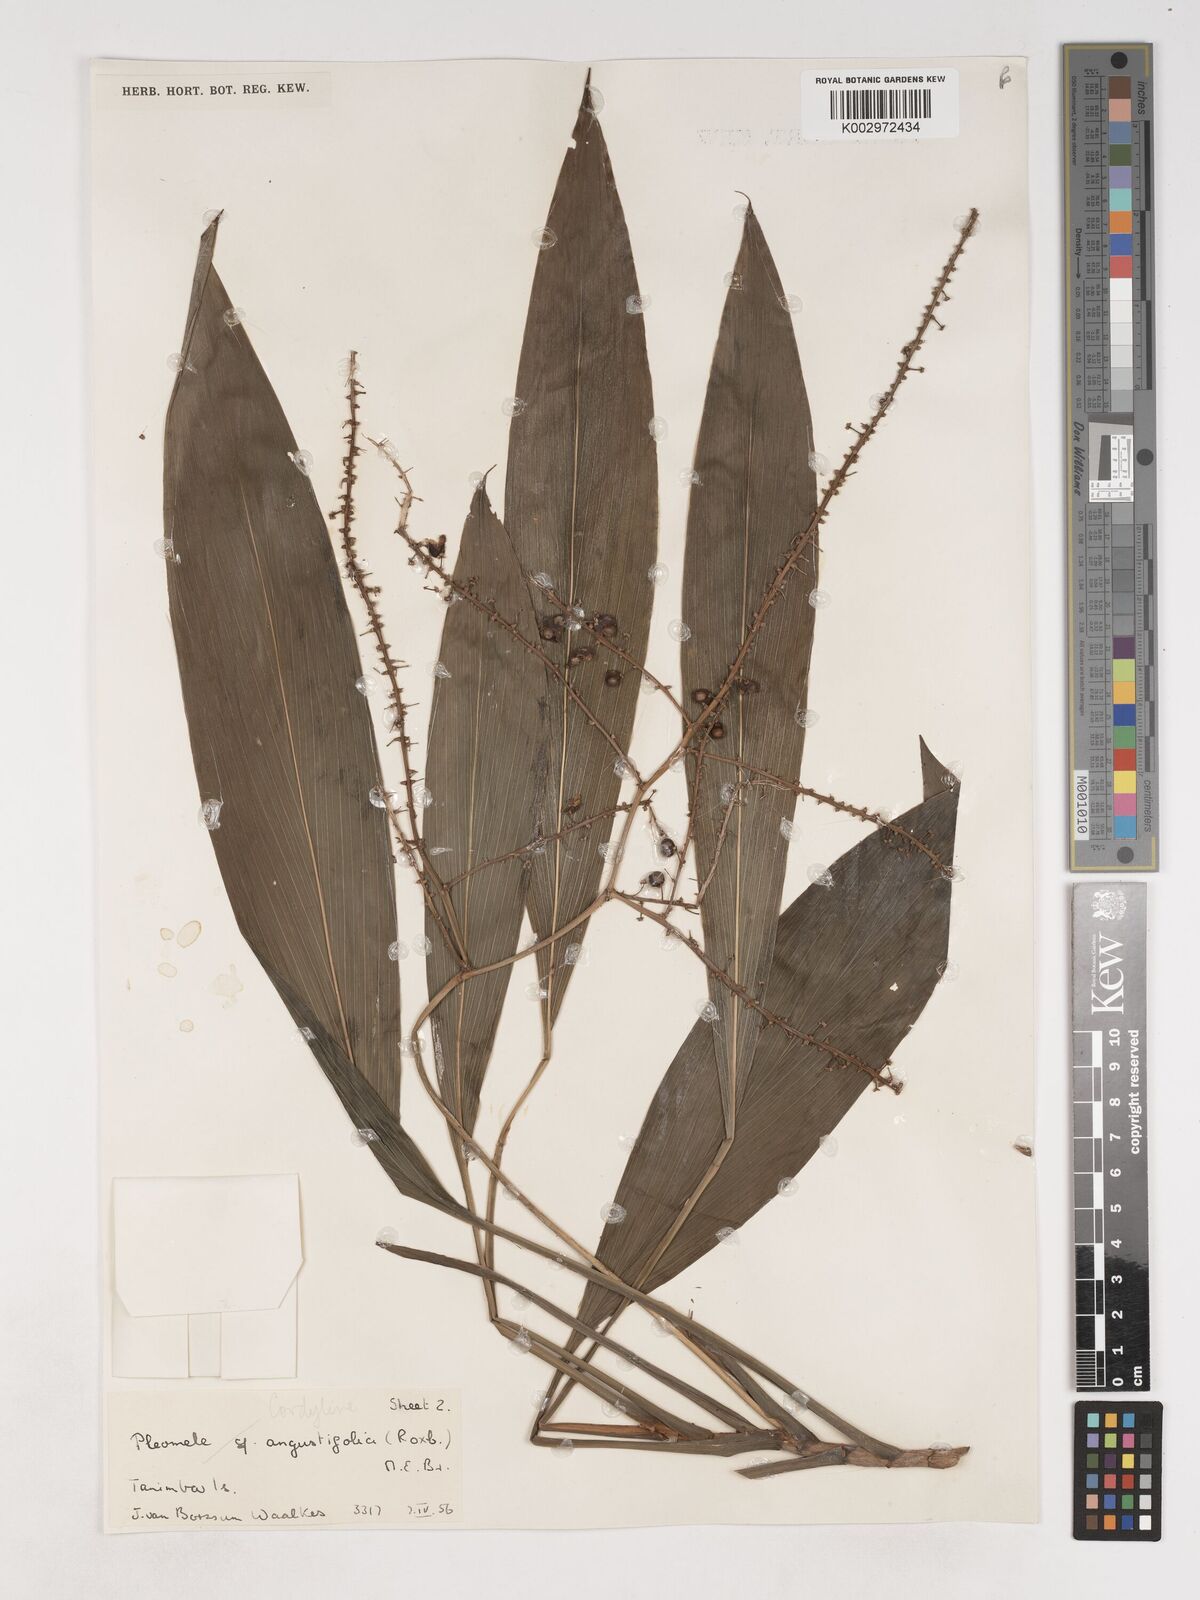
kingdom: Plantae
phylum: Tracheophyta
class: Liliopsida
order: Asparagales
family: Asparagaceae
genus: Cordyline
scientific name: Cordyline
